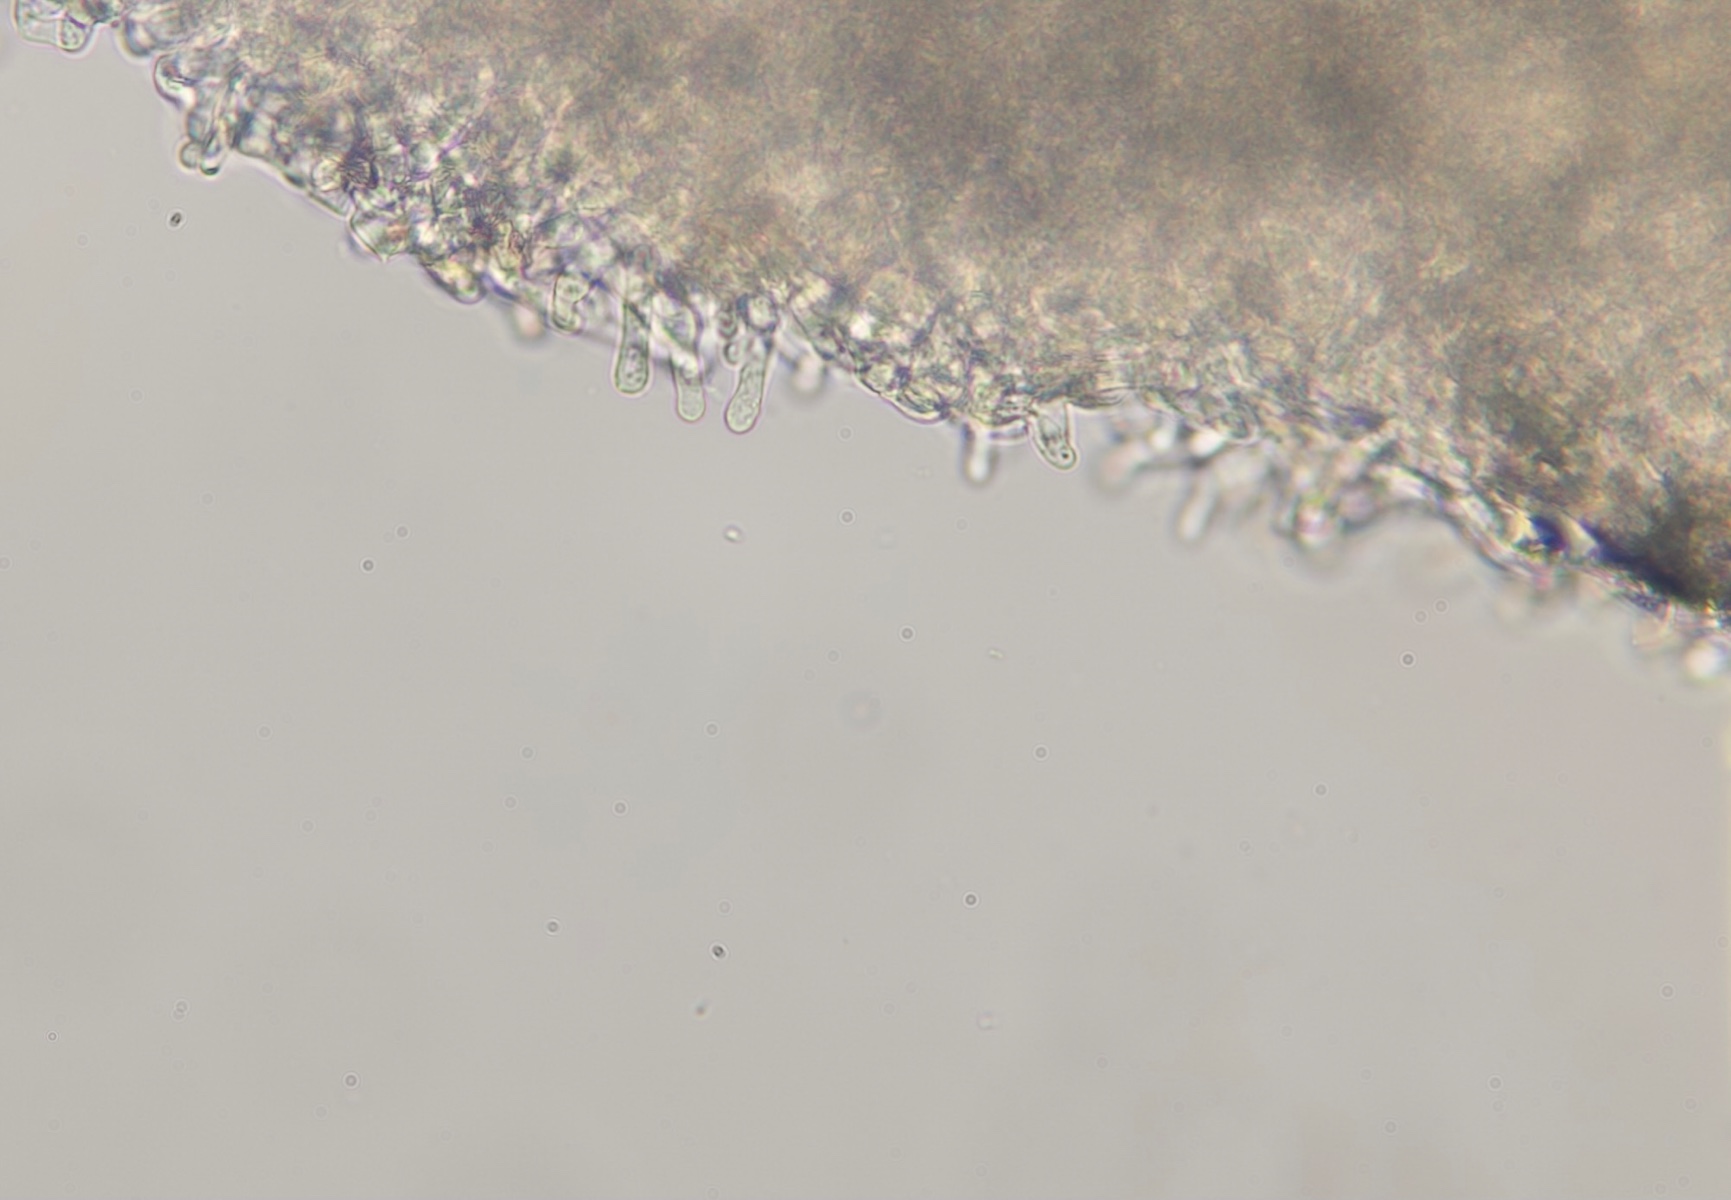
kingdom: Fungi
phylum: Basidiomycota
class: Agaricomycetes
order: Agaricales
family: Tubariaceae
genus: Tubaria
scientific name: Tubaria conspersa
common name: bleg fnughat
